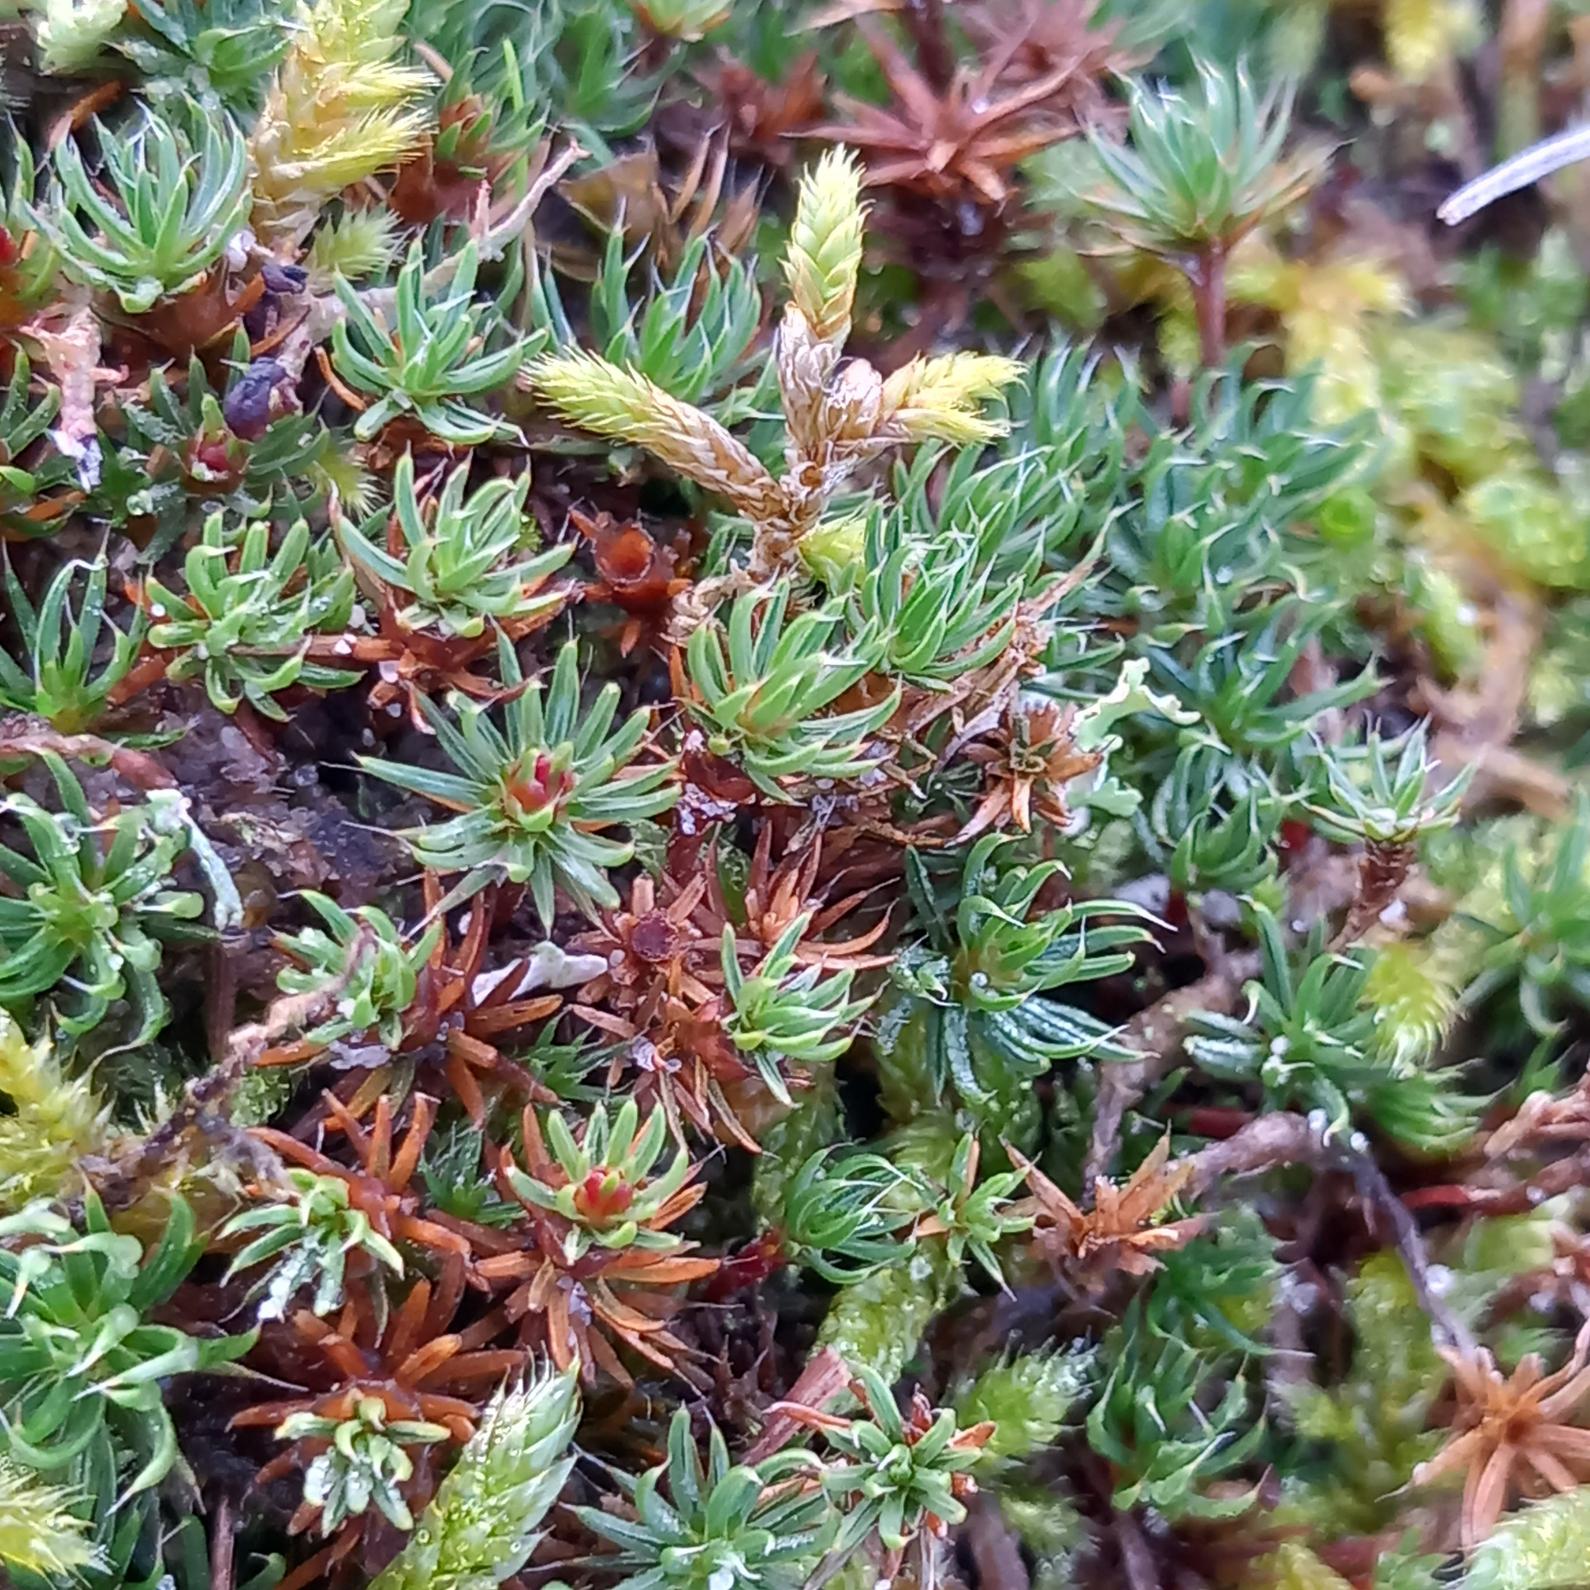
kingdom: Plantae
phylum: Bryophyta
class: Polytrichopsida
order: Polytrichales
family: Polytrichaceae
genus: Polytrichum
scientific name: Polytrichum piliferum
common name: Hårspidset jomfruhår
